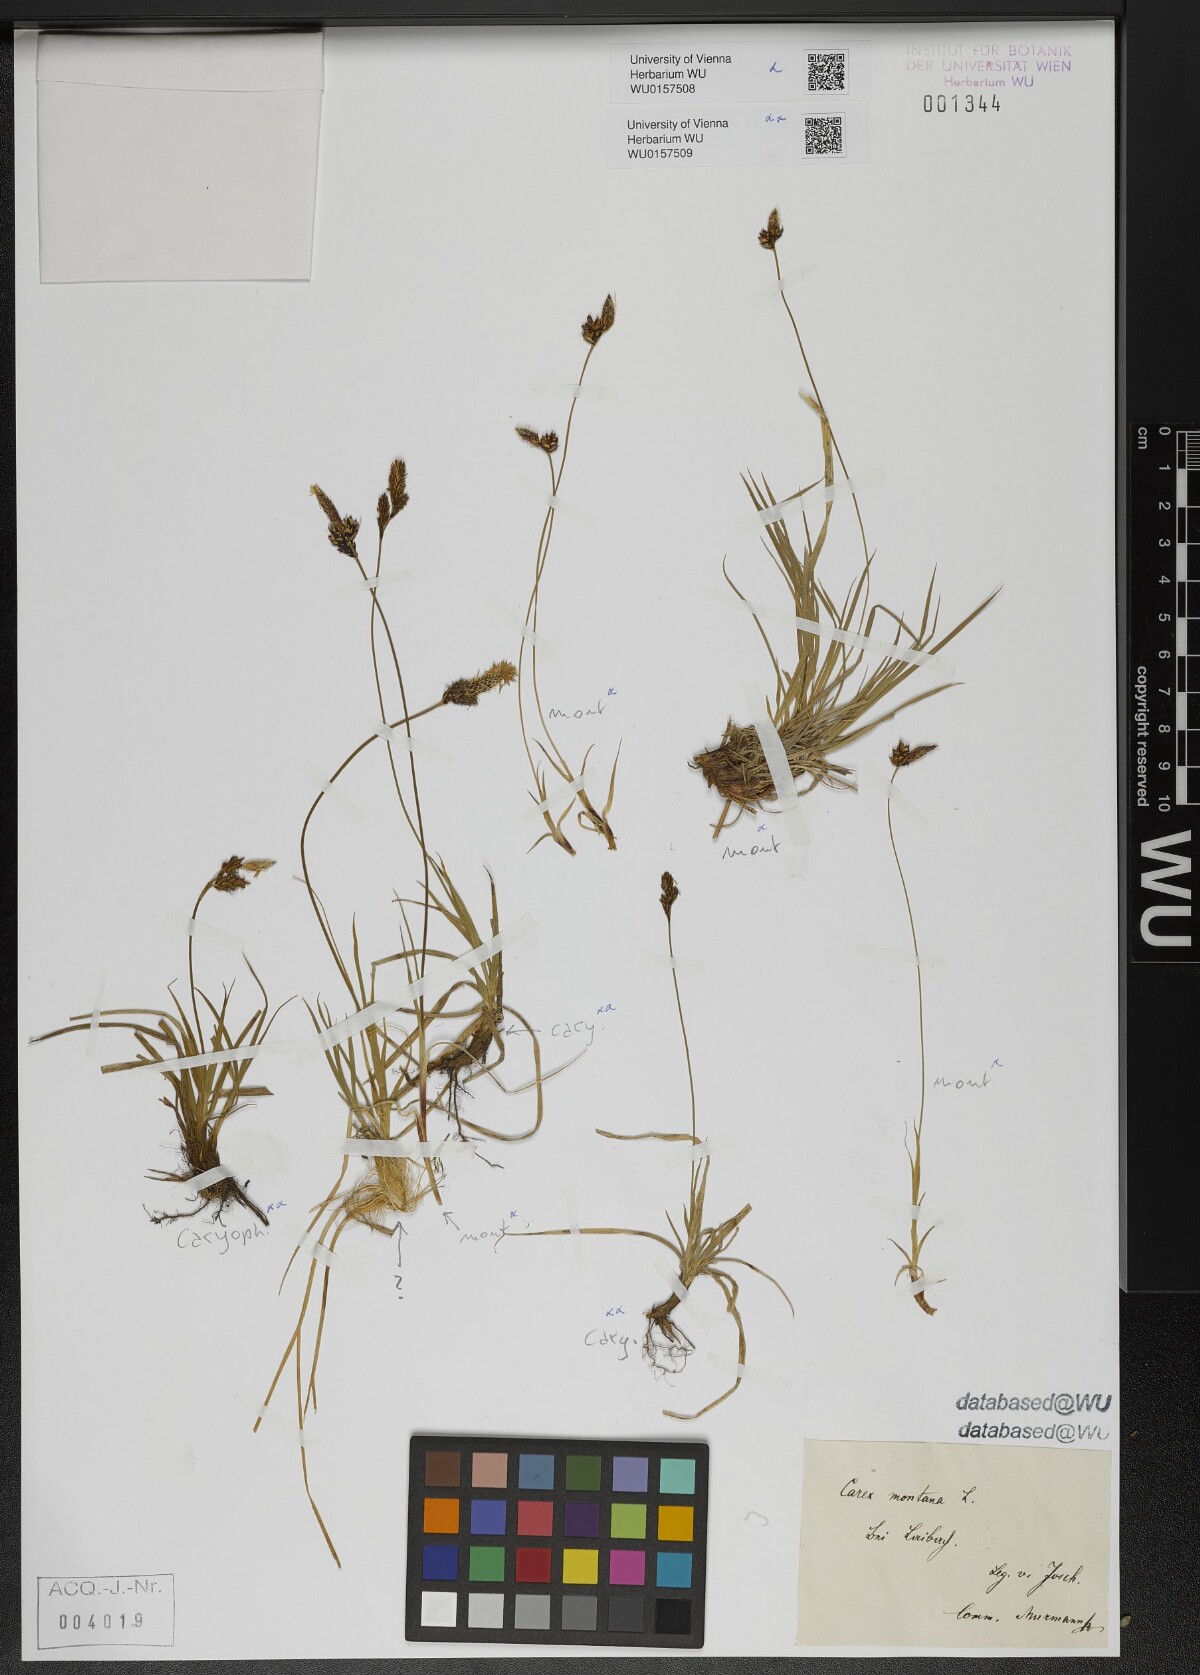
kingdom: Plantae
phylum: Tracheophyta
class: Liliopsida
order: Poales
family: Cyperaceae
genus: Carex
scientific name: Carex montana
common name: Soft-leaved sedge
